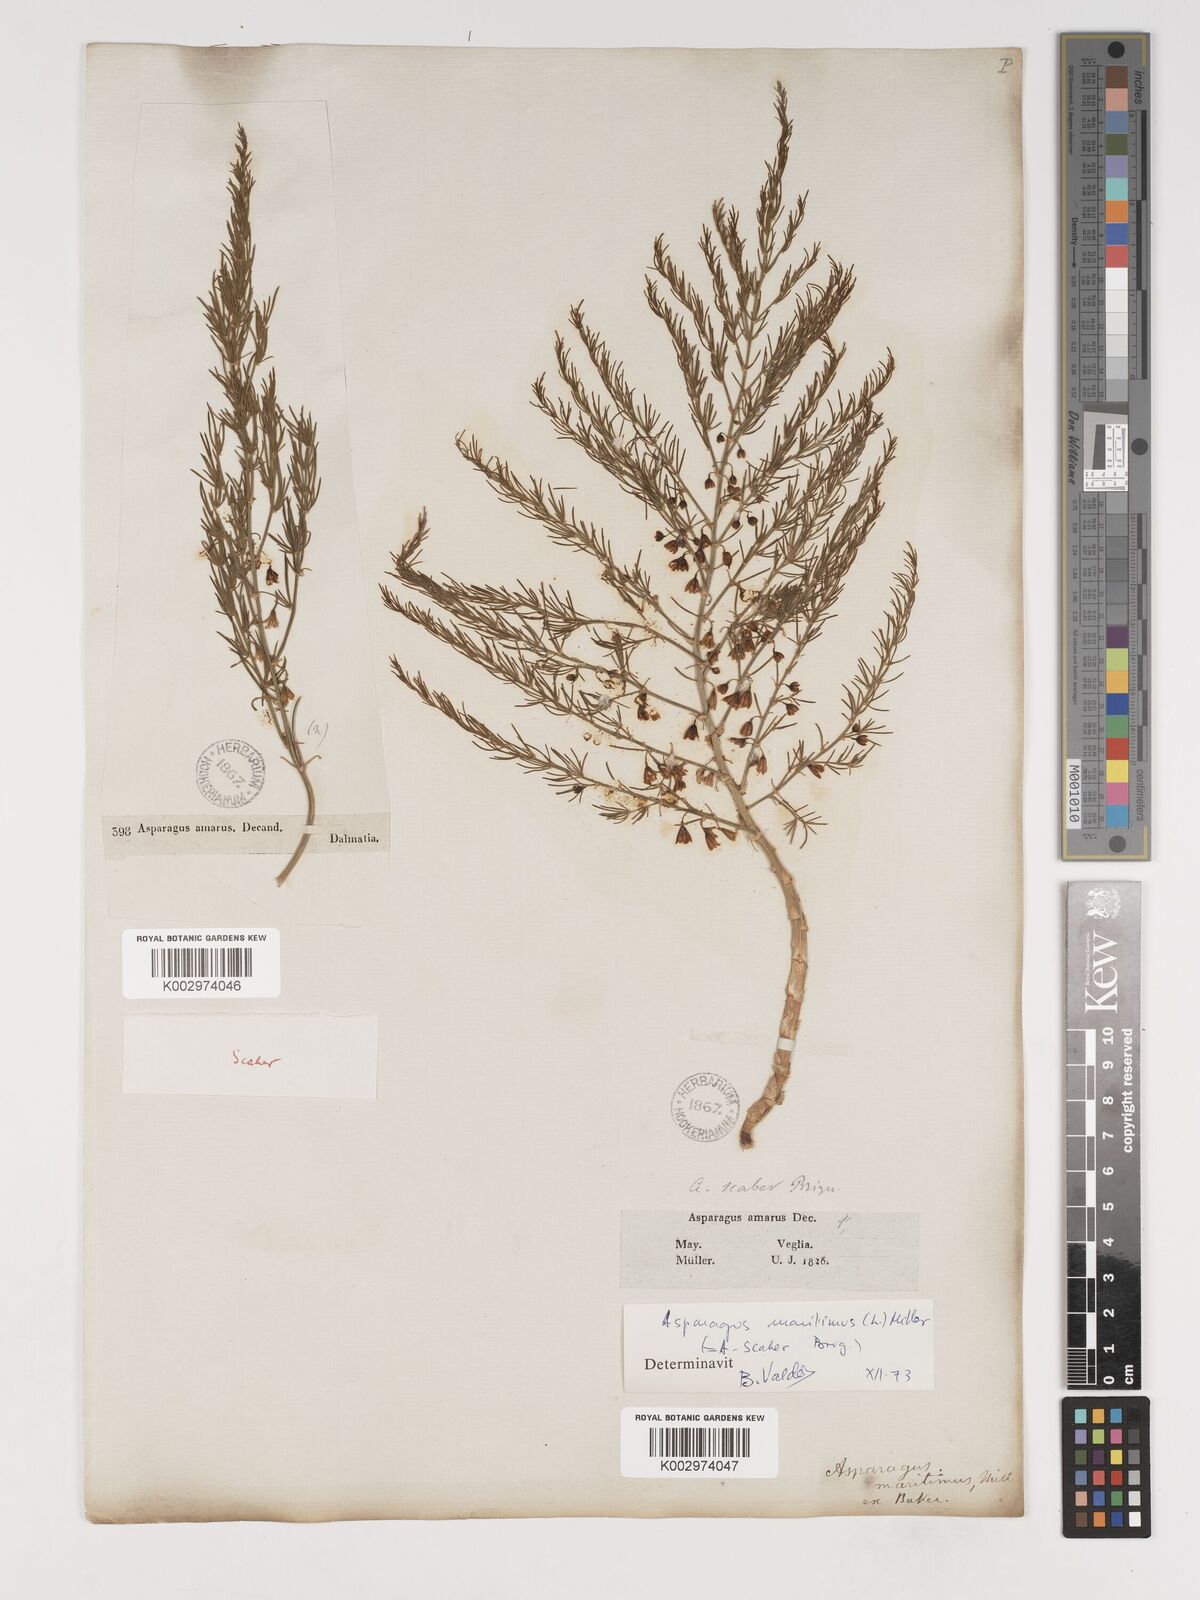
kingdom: Plantae
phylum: Tracheophyta
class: Liliopsida
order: Asparagales
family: Asparagaceae
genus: Asparagus
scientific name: Asparagus maritimus
